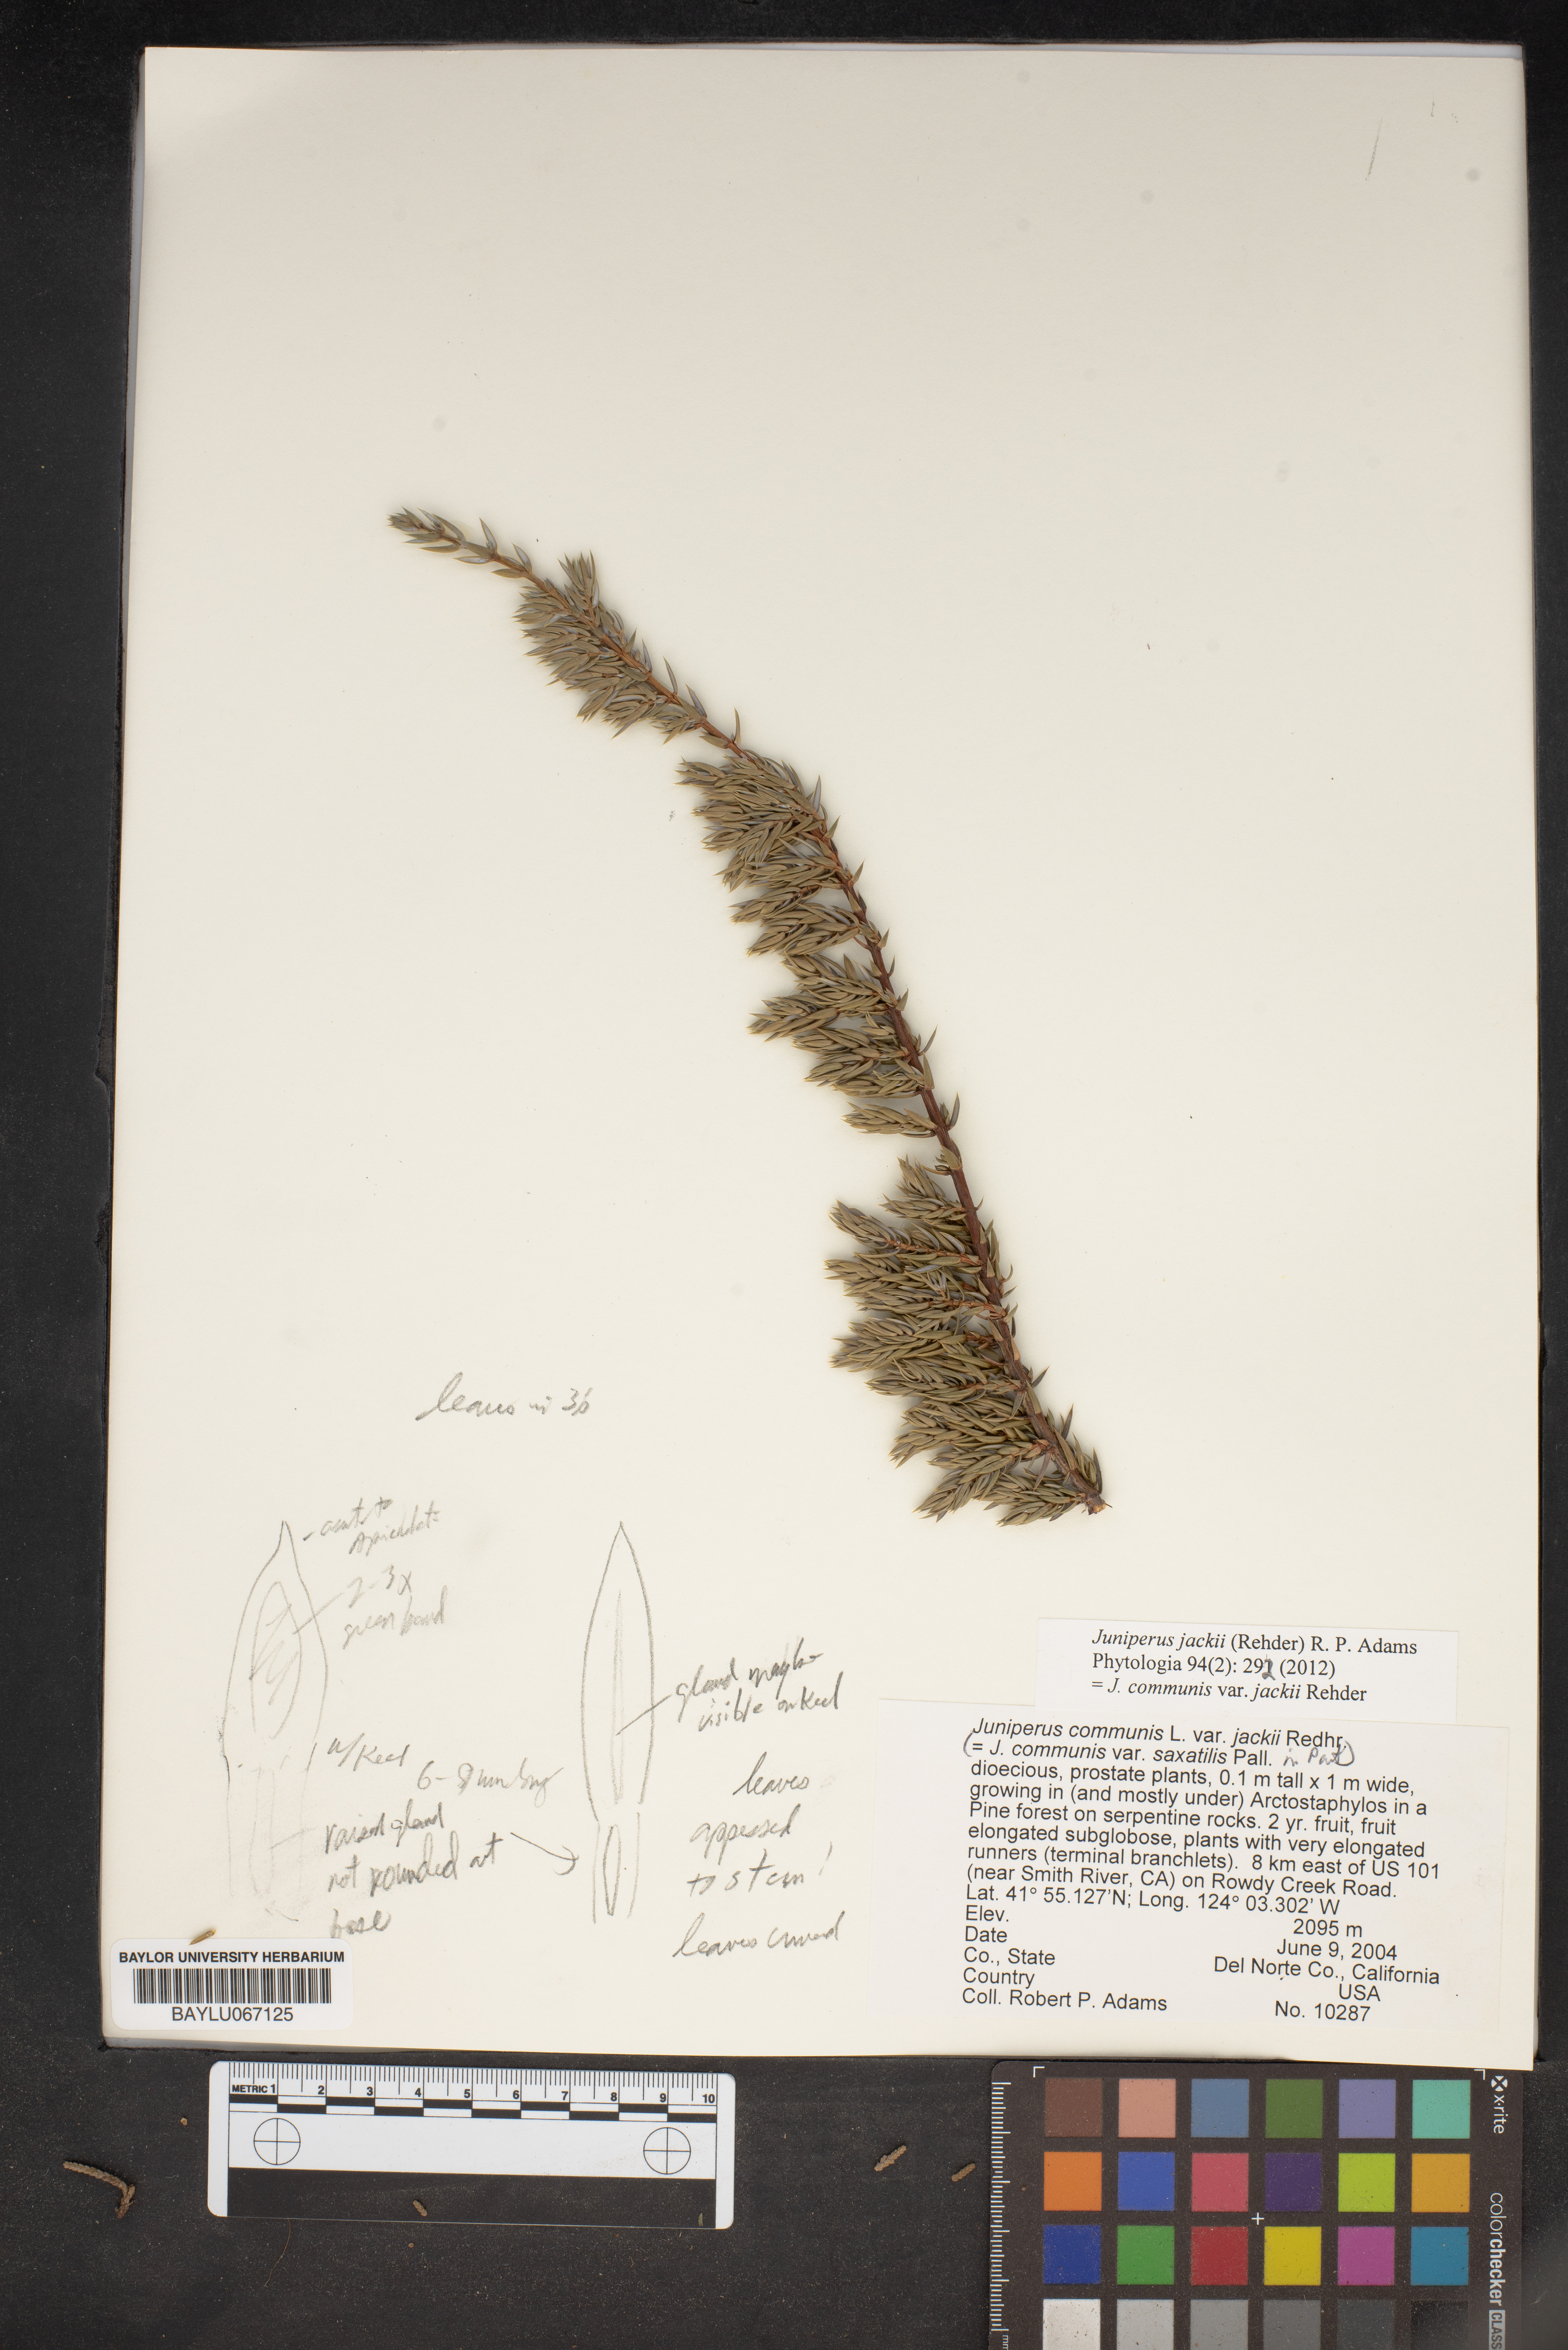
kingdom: Plantae
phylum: Tracheophyta
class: Pinopsida
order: Pinales
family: Cupressaceae
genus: Juniperus
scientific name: Juniperus communis
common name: Common juniper
